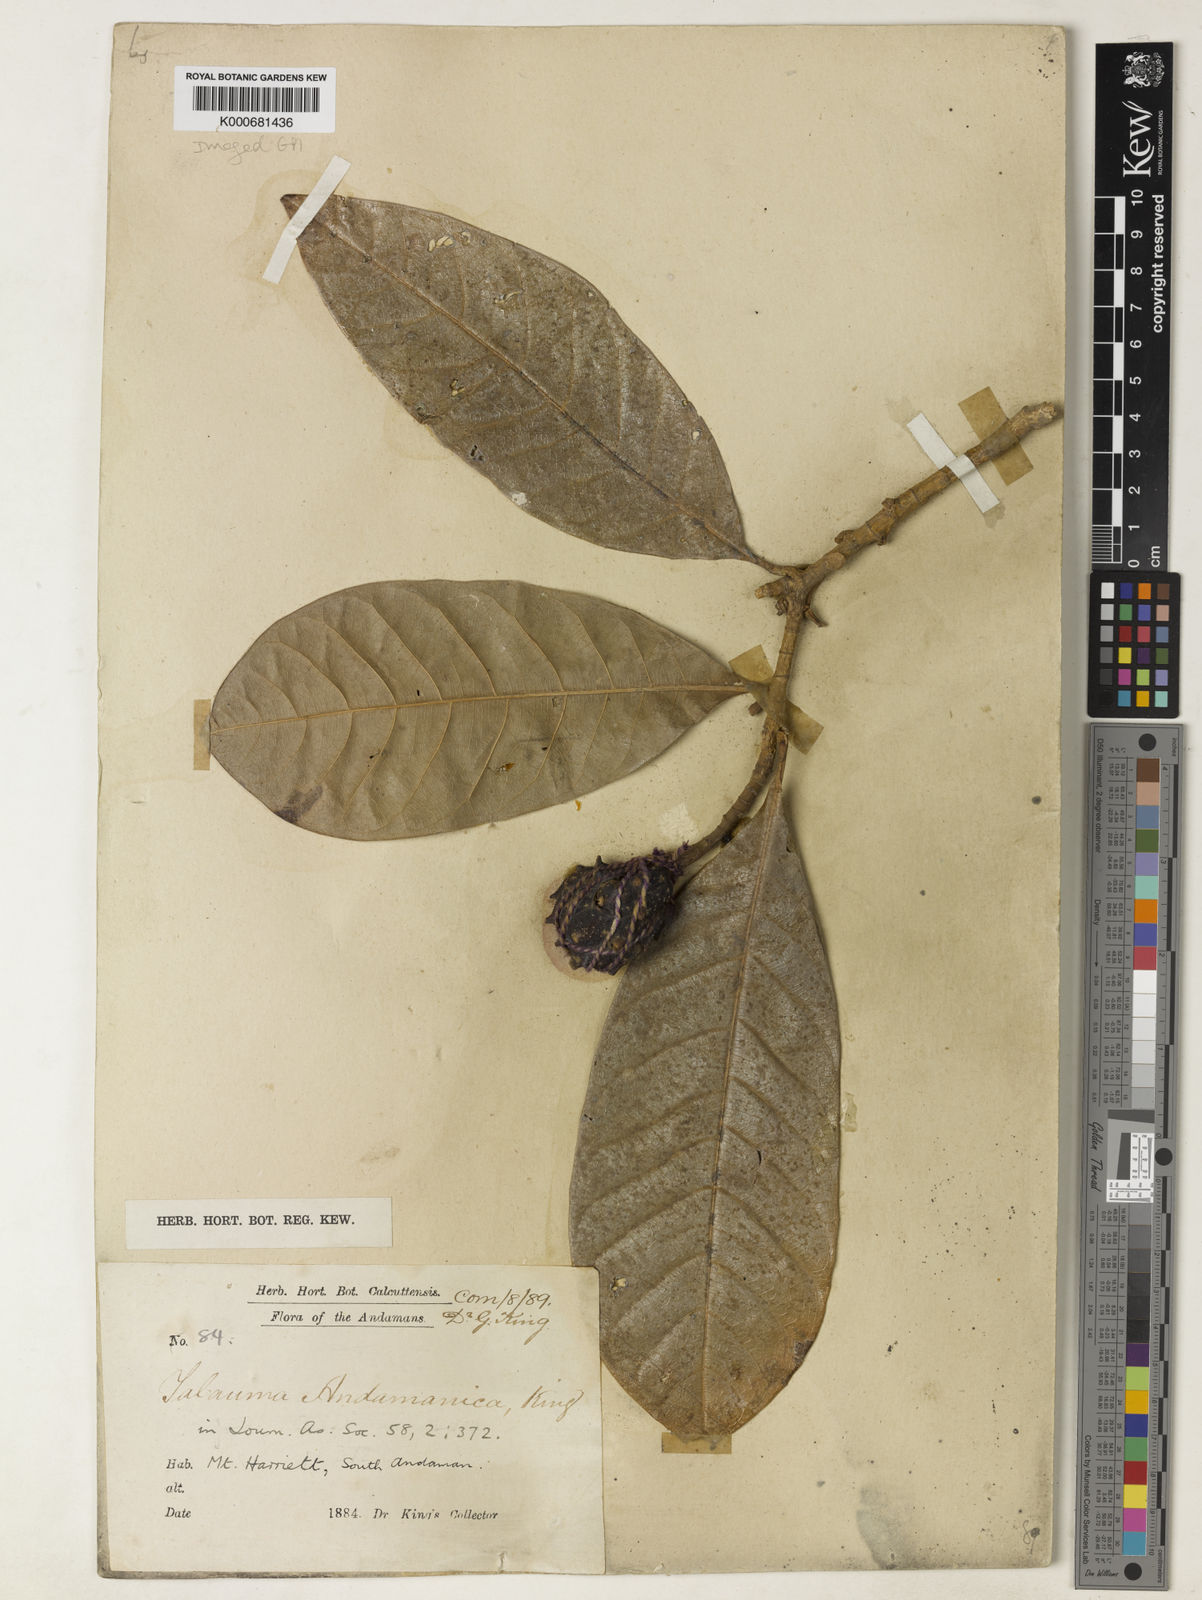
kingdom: Plantae
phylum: Tracheophyta
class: Magnoliopsida
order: Magnoliales
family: Magnoliaceae
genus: Magnolia
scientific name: Magnolia betongensis
